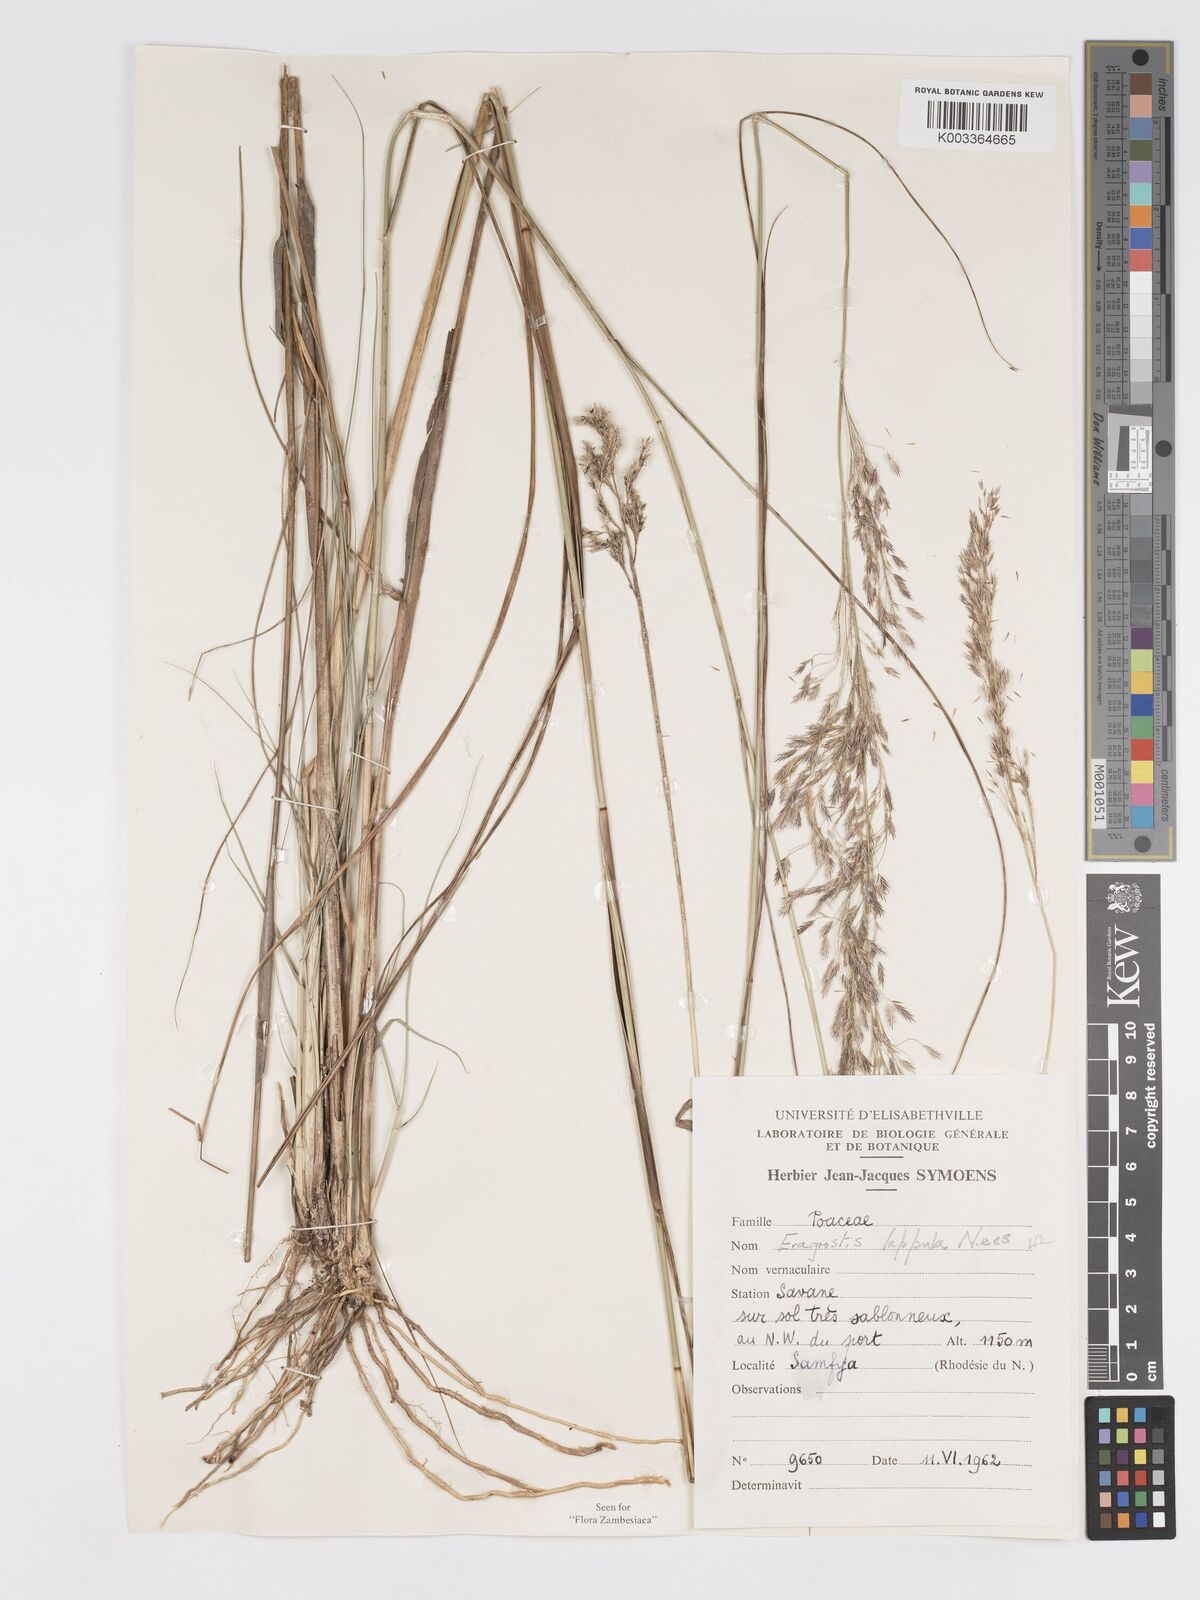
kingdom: Plantae
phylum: Tracheophyta
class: Liliopsida
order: Poales
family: Poaceae
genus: Eragrostis
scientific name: Eragrostis lappula
